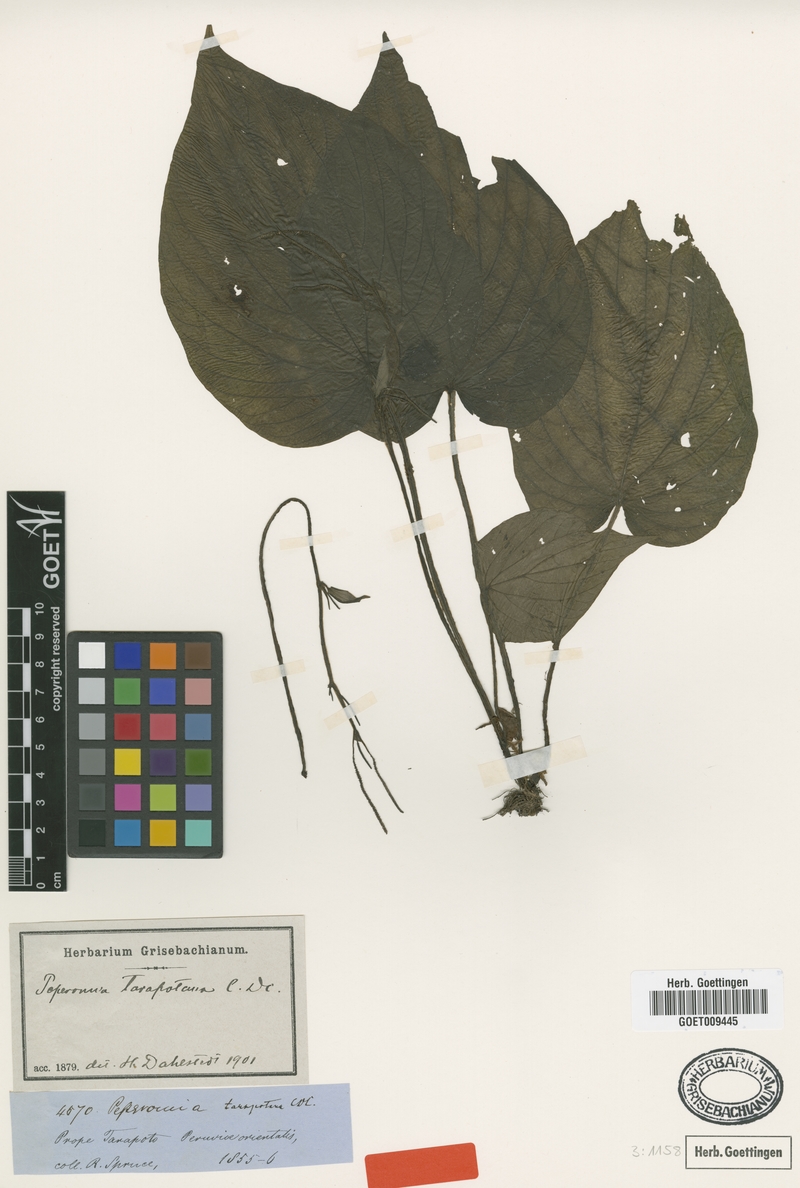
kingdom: Plantae
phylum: Tracheophyta
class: Magnoliopsida
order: Piperales
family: Piperaceae
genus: Peperomia
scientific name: Peperomia tarapotana
